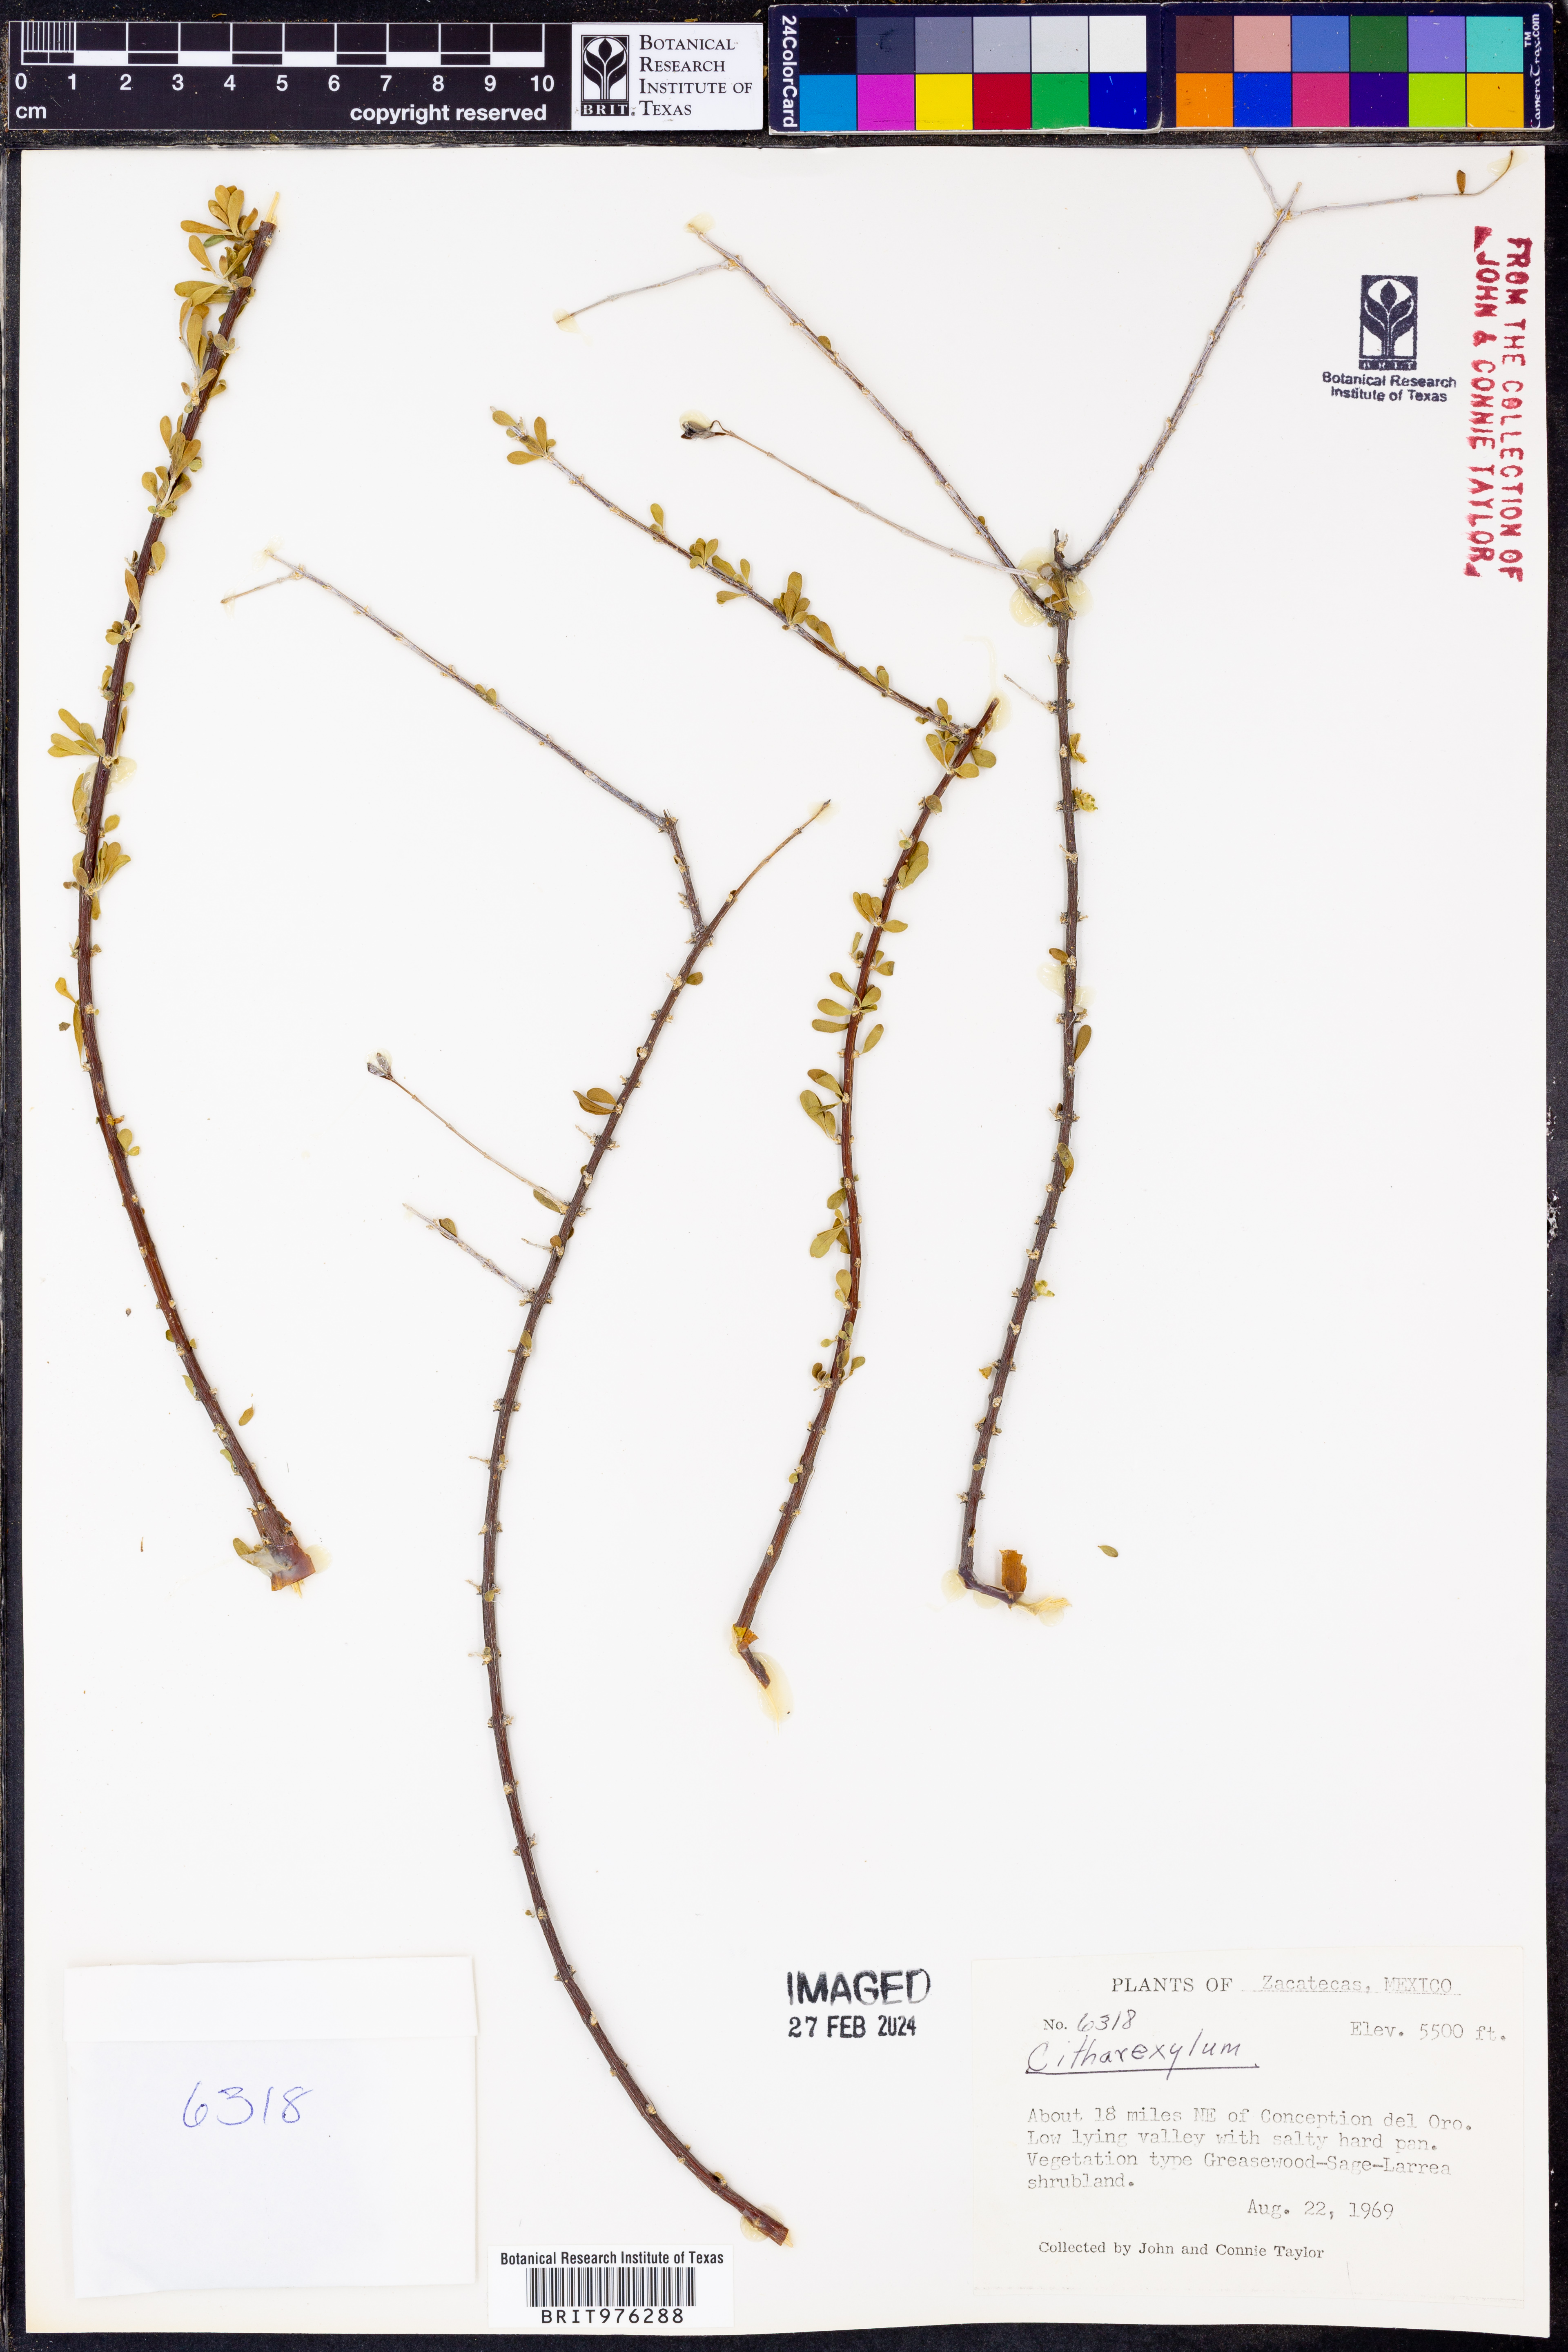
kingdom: Plantae
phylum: Tracheophyta
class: Magnoliopsida
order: Lamiales
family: Verbenaceae
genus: Citharexylum
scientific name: Citharexylum
